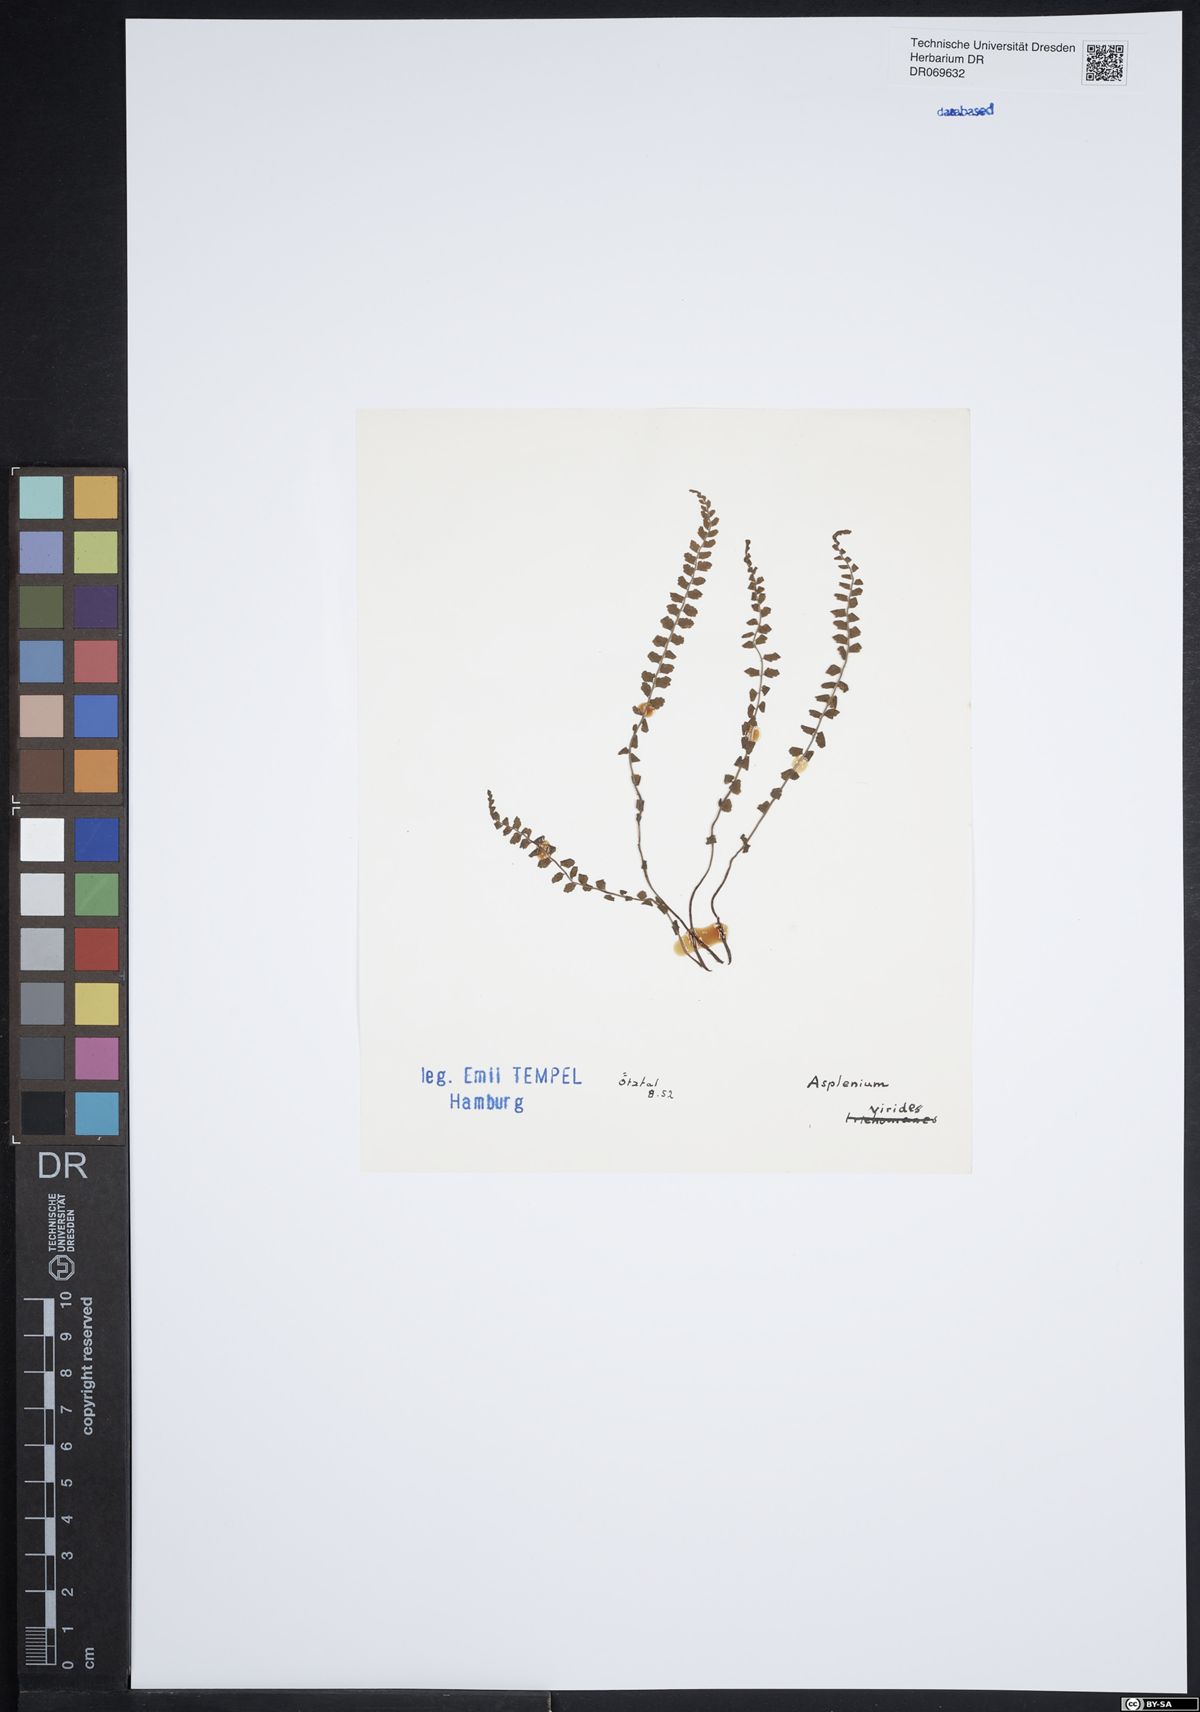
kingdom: Plantae
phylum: Tracheophyta
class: Polypodiopsida
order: Polypodiales
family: Aspleniaceae
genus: Asplenium
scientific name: Asplenium viride
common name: Green spleenwort
